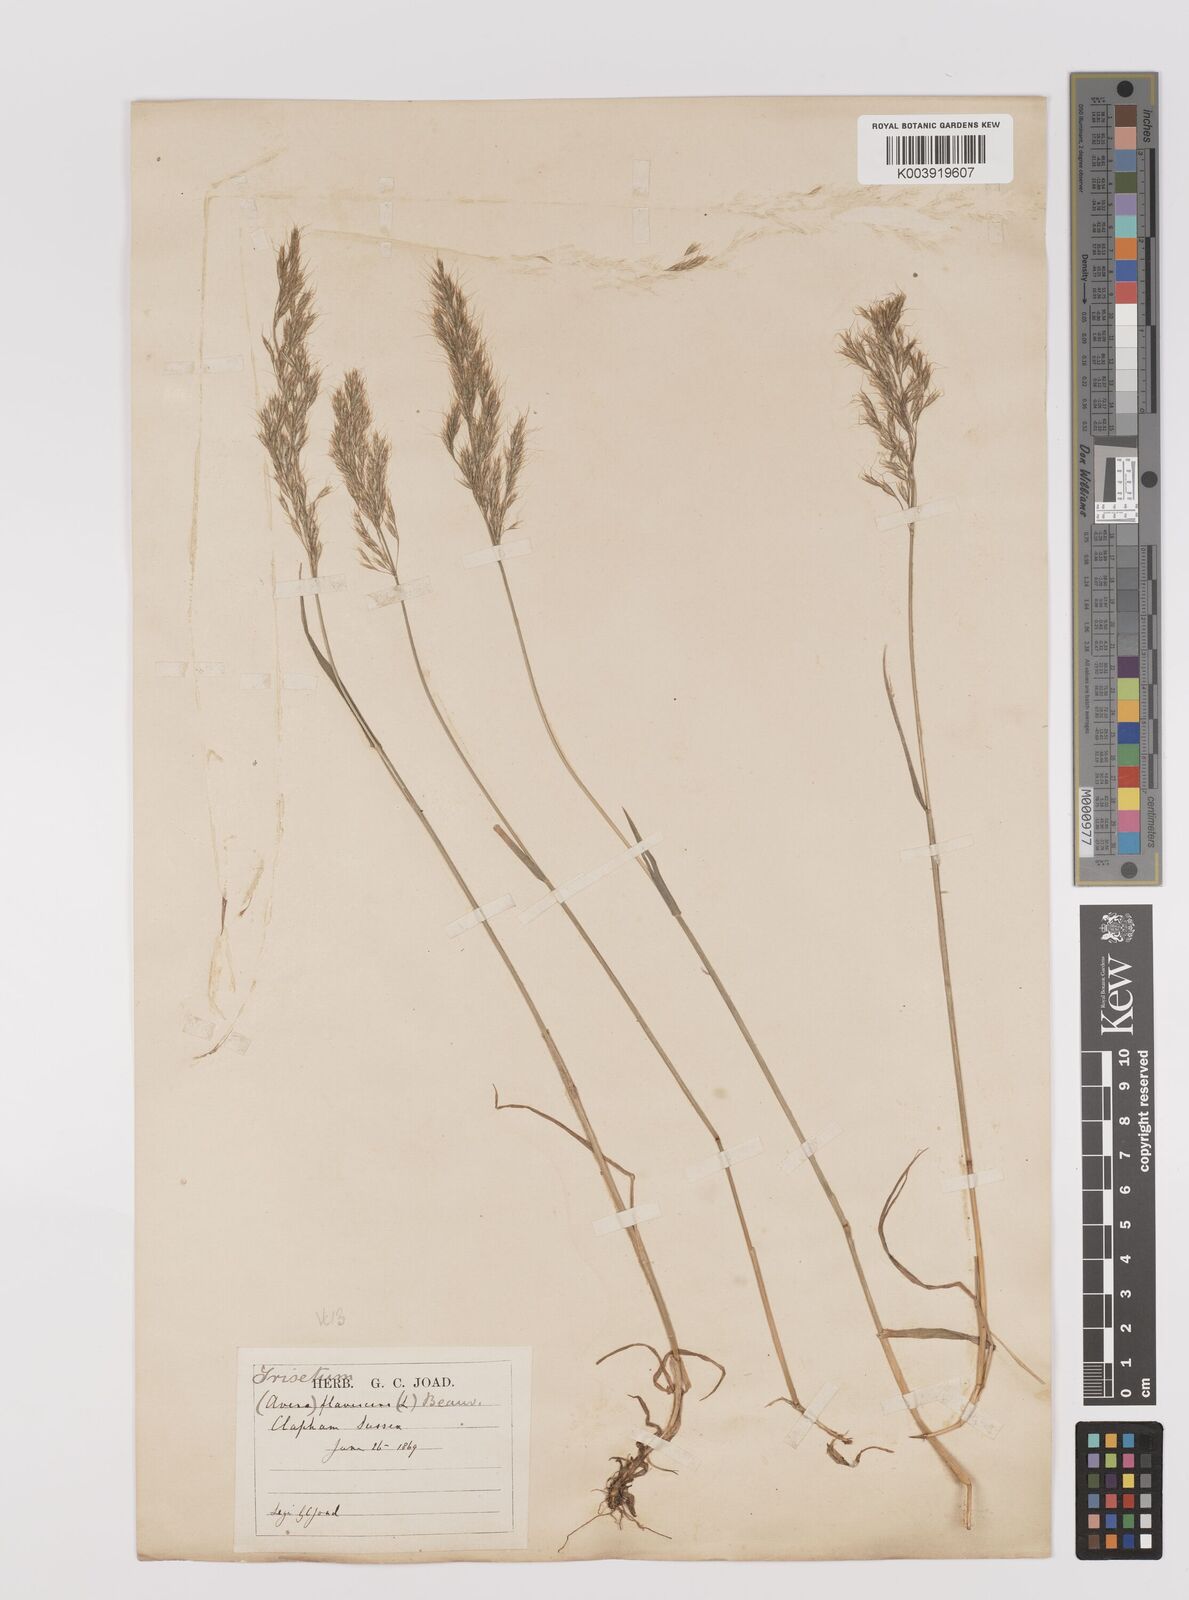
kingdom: Plantae
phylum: Tracheophyta
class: Liliopsida
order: Poales
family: Poaceae
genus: Trisetum
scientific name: Trisetum flavescens
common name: Yellow oat-grass
